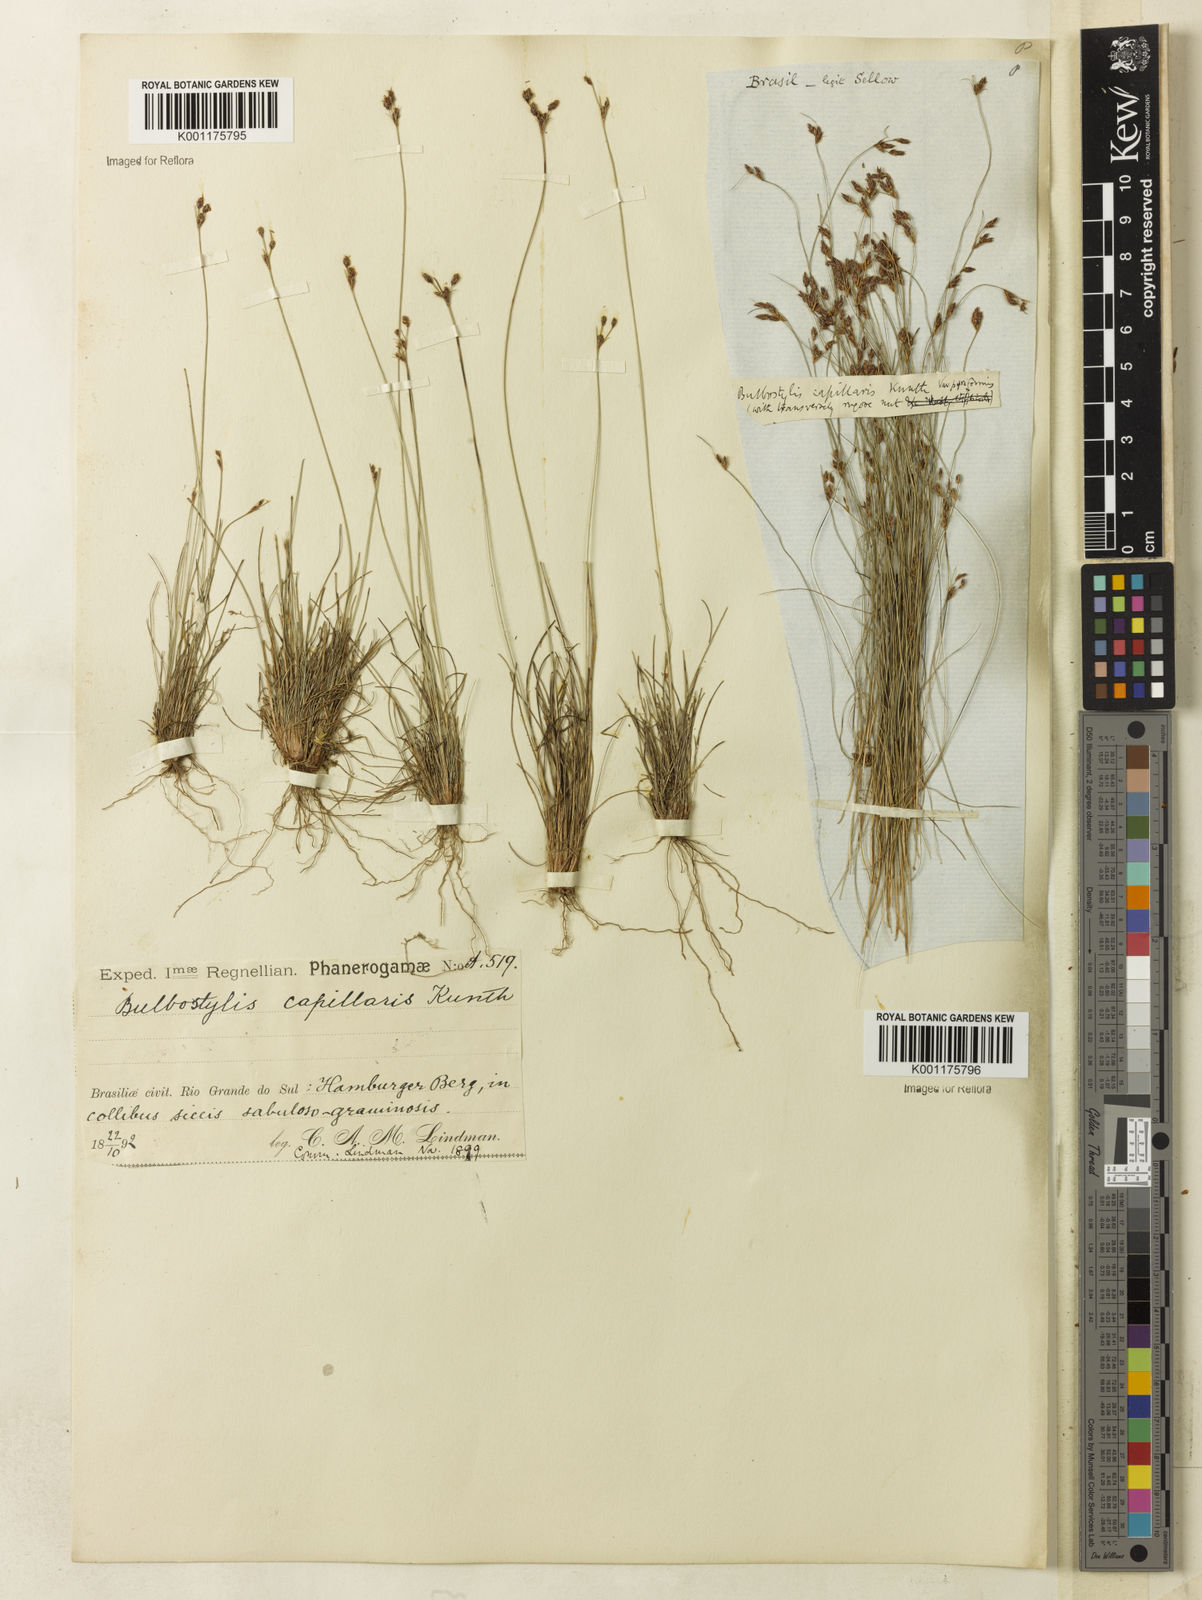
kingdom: Plantae
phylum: Tracheophyta
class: Liliopsida
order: Poales
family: Cyperaceae
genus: Bulbostylis
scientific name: Bulbostylis capillaris
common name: Densetuft hairsedge
